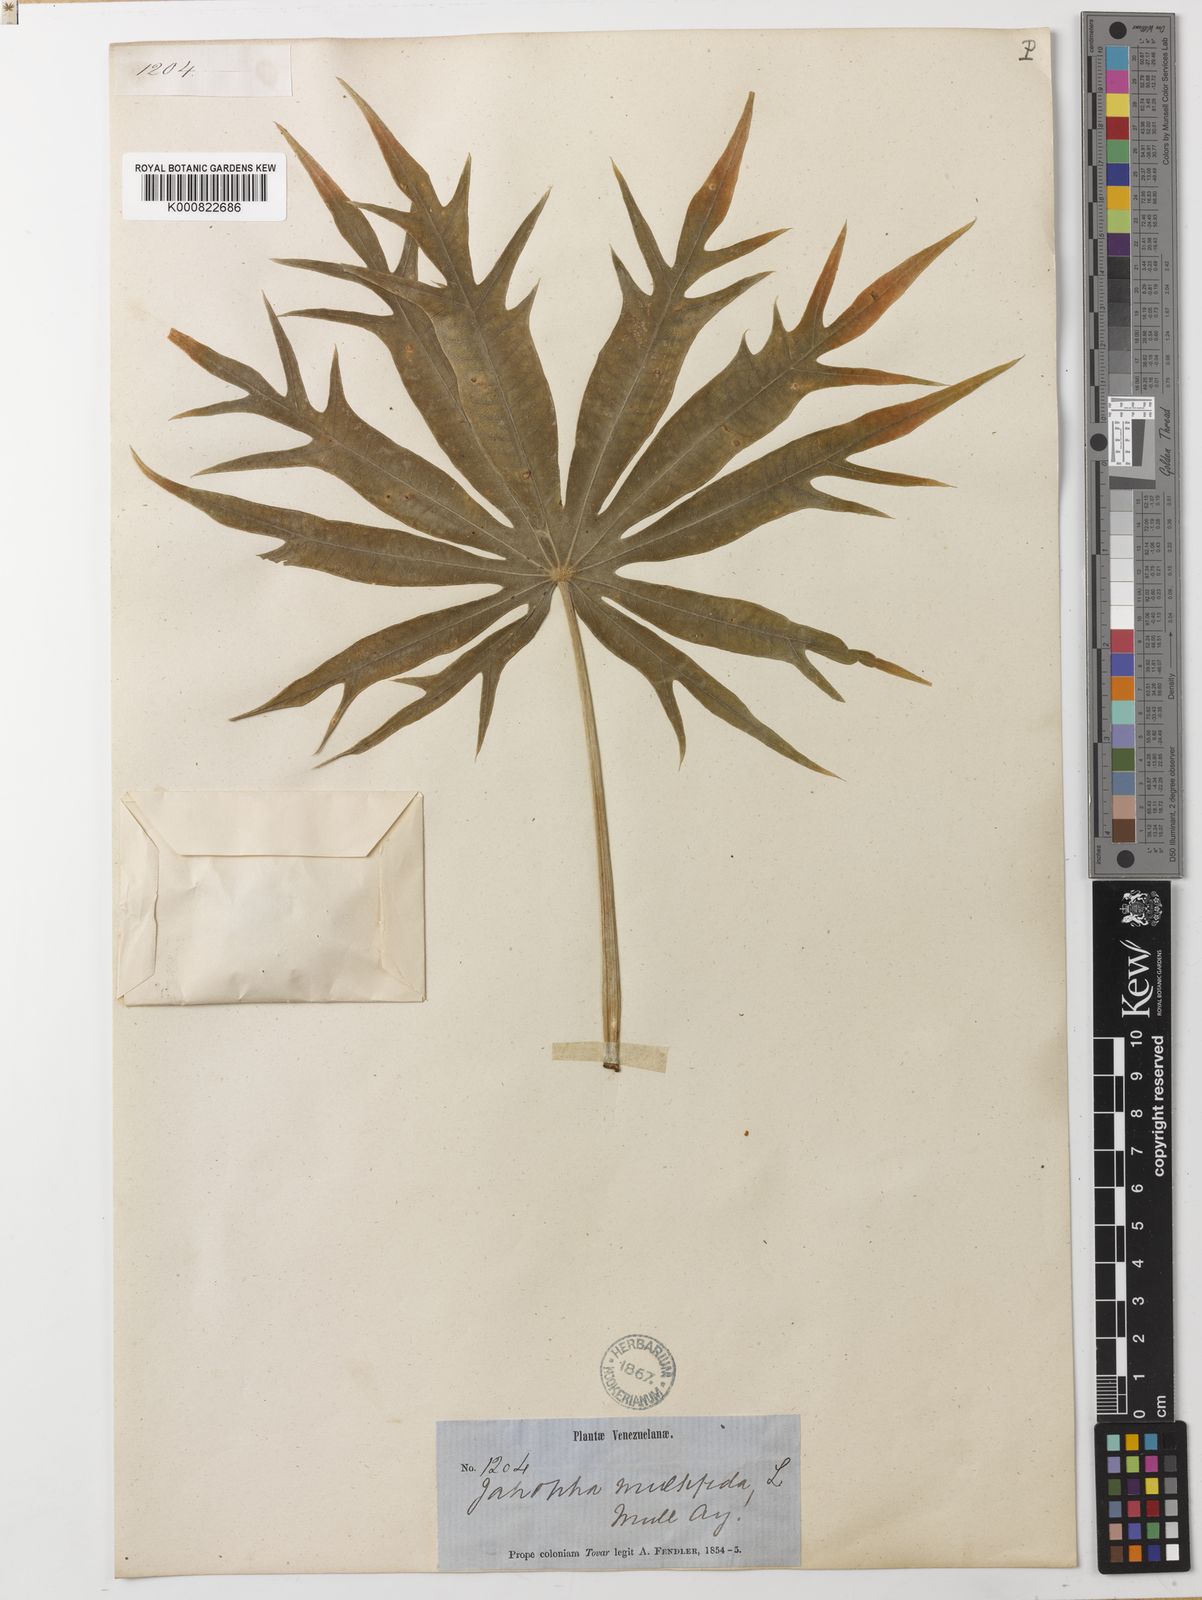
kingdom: Plantae
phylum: Tracheophyta
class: Magnoliopsida
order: Malpighiales
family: Euphorbiaceae
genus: Jatropha
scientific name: Jatropha multifida
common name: Coralbush
